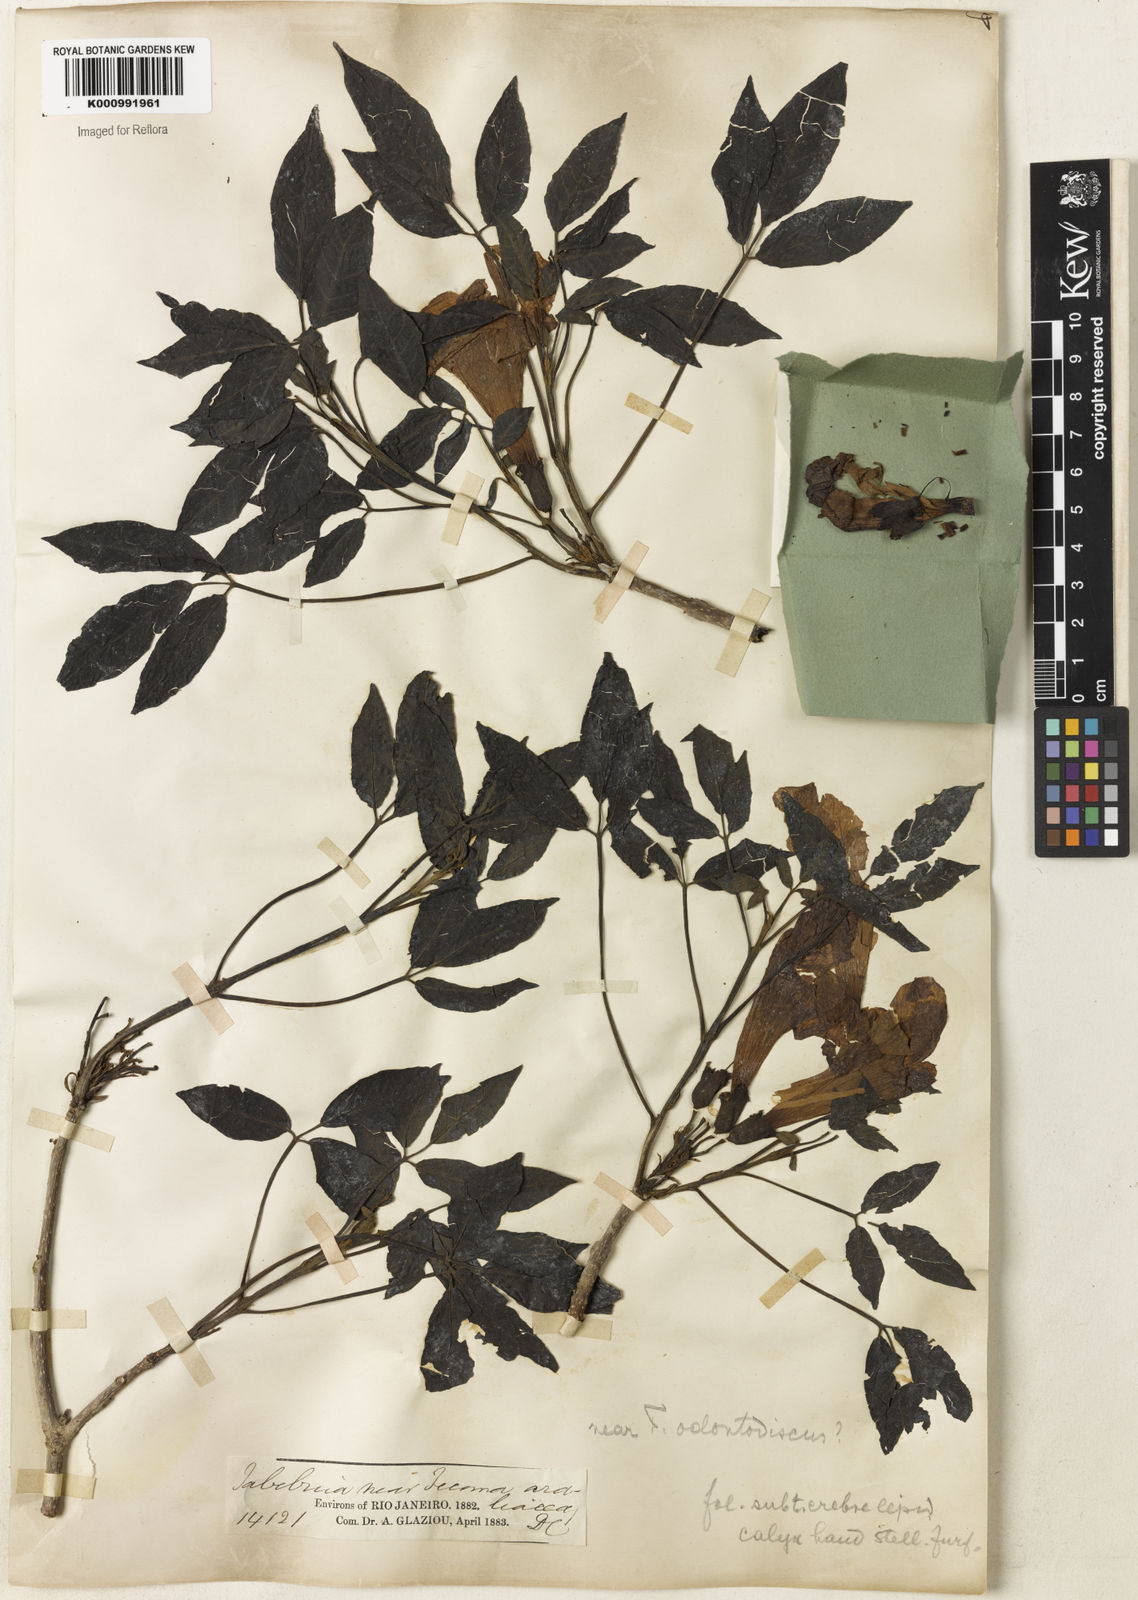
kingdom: Plantae
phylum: Tracheophyta
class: Magnoliopsida
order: Lamiales
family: Bignoniaceae
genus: Tabebuia
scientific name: Tabebuia roseoalba
